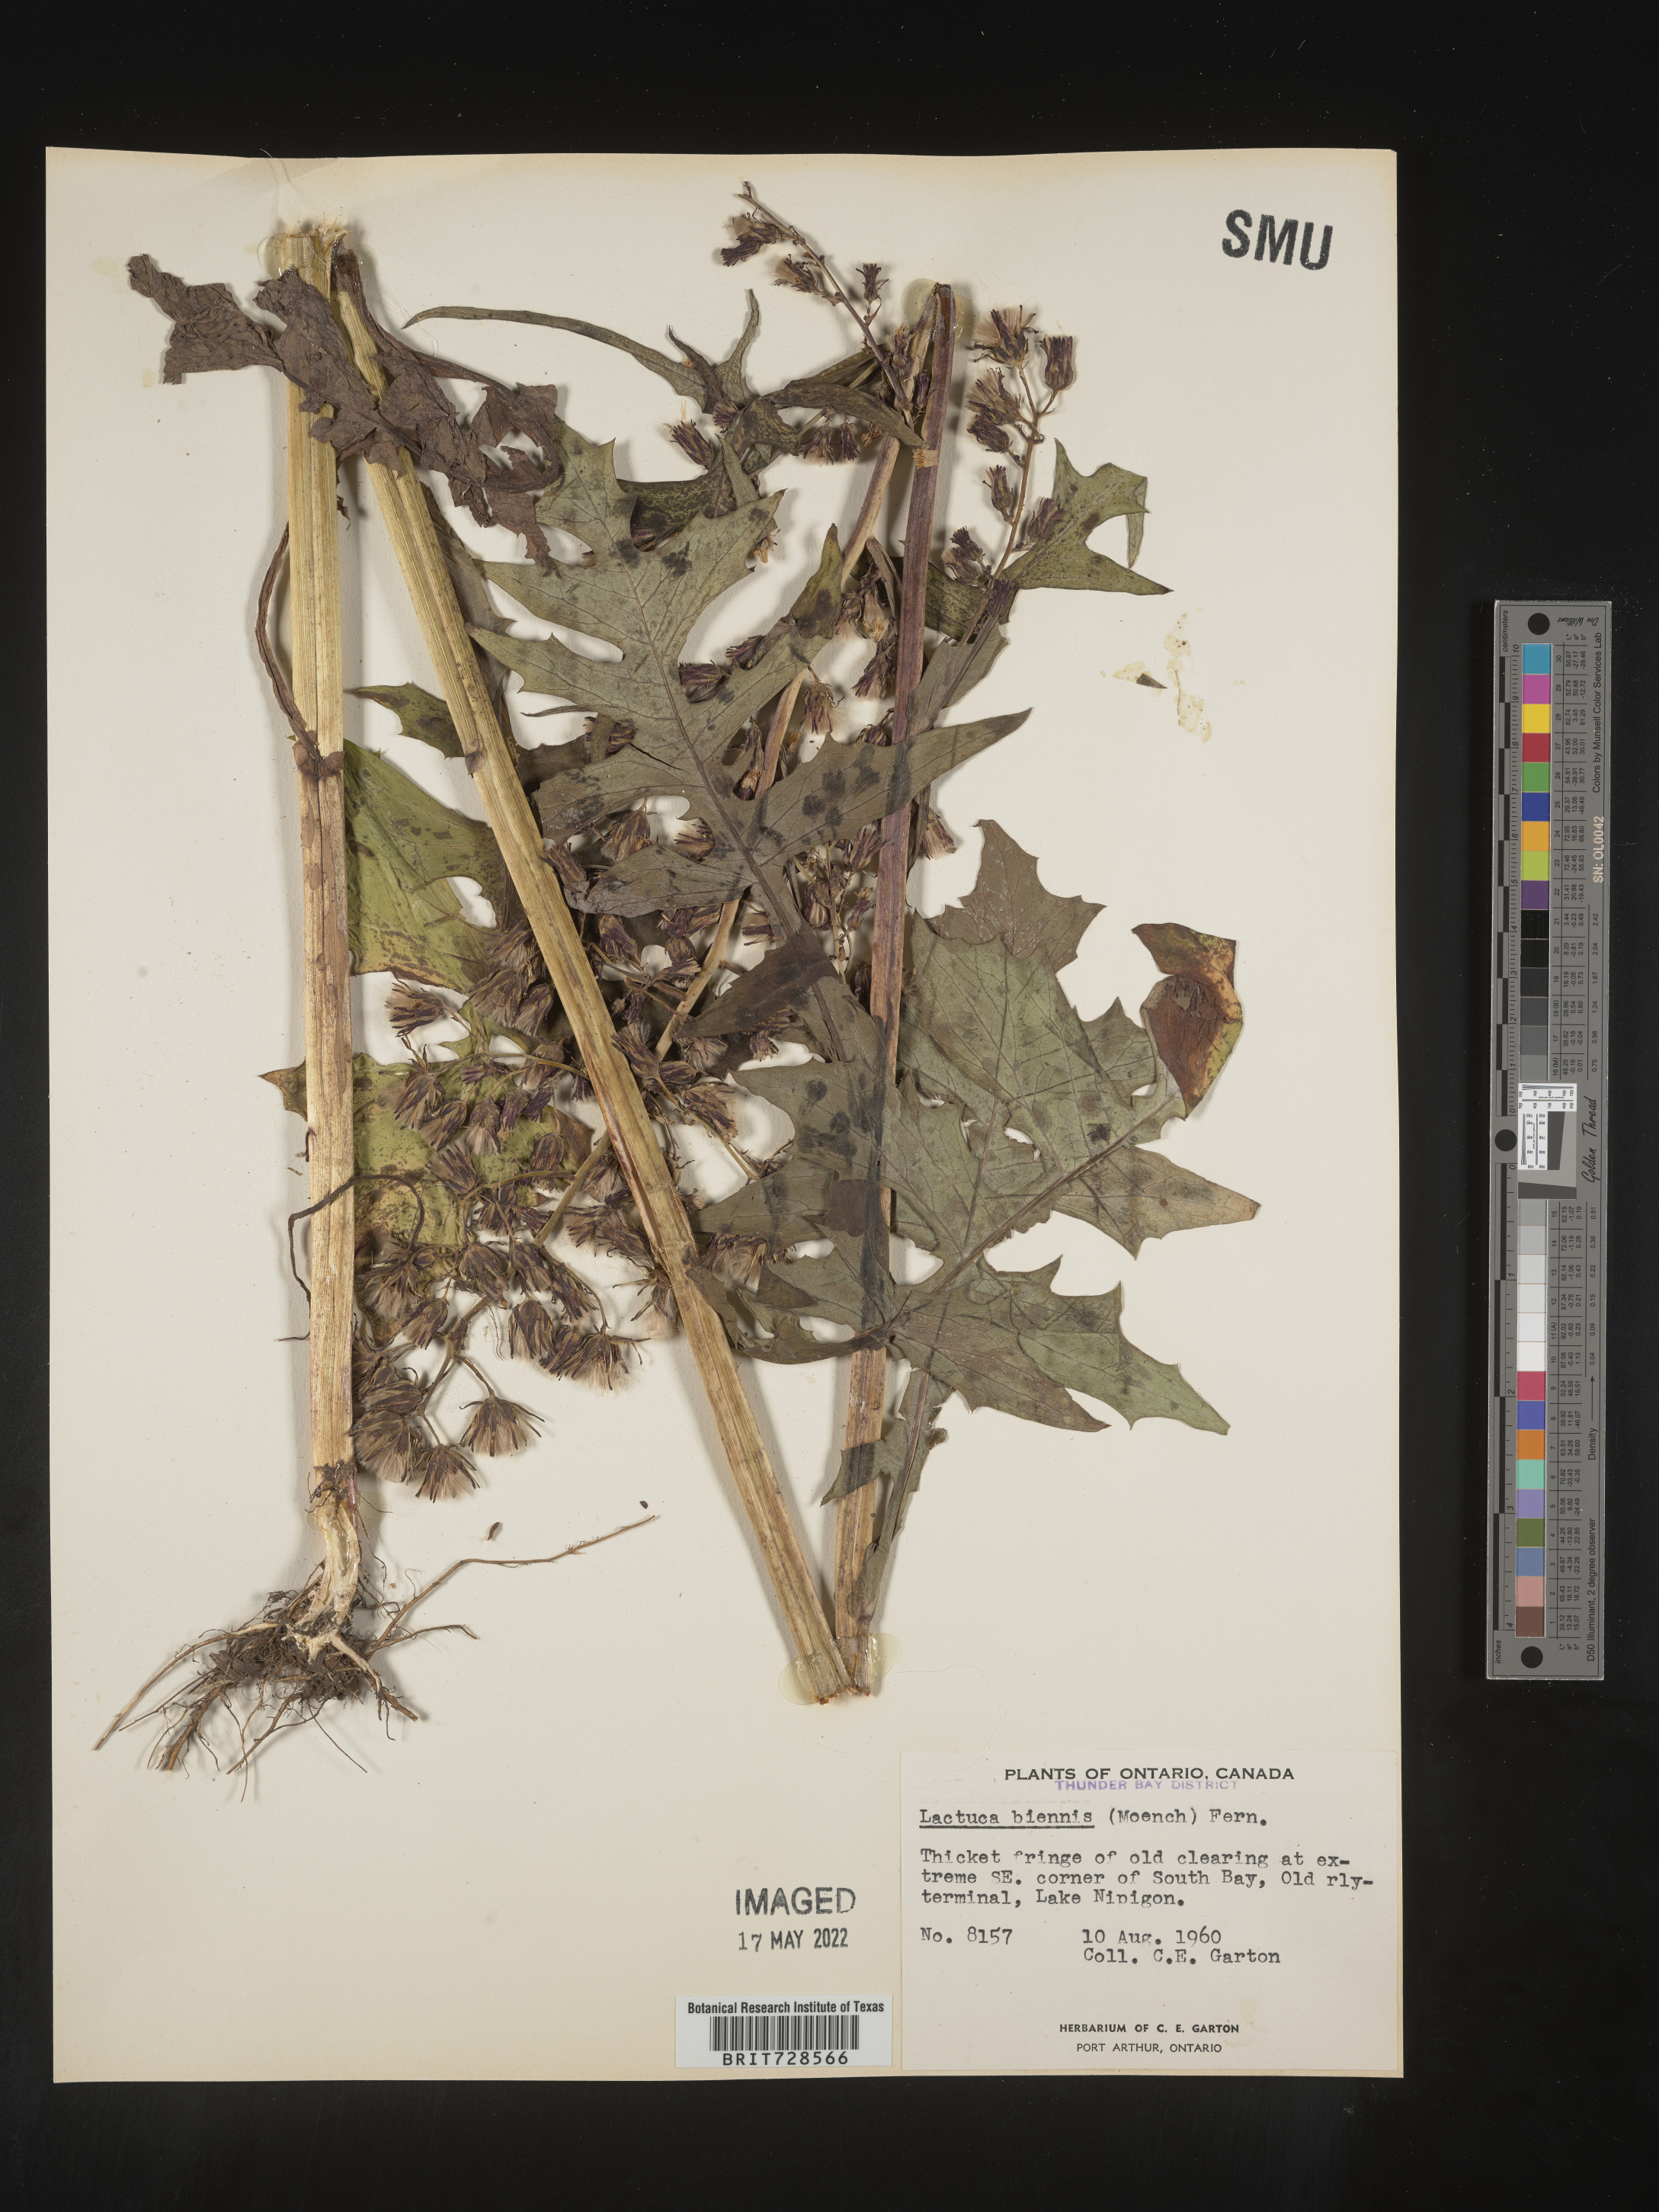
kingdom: Plantae
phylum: Tracheophyta
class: Magnoliopsida
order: Asterales
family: Asteraceae
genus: Lactuca
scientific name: Lactuca biennis
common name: Blue wood lettuce
